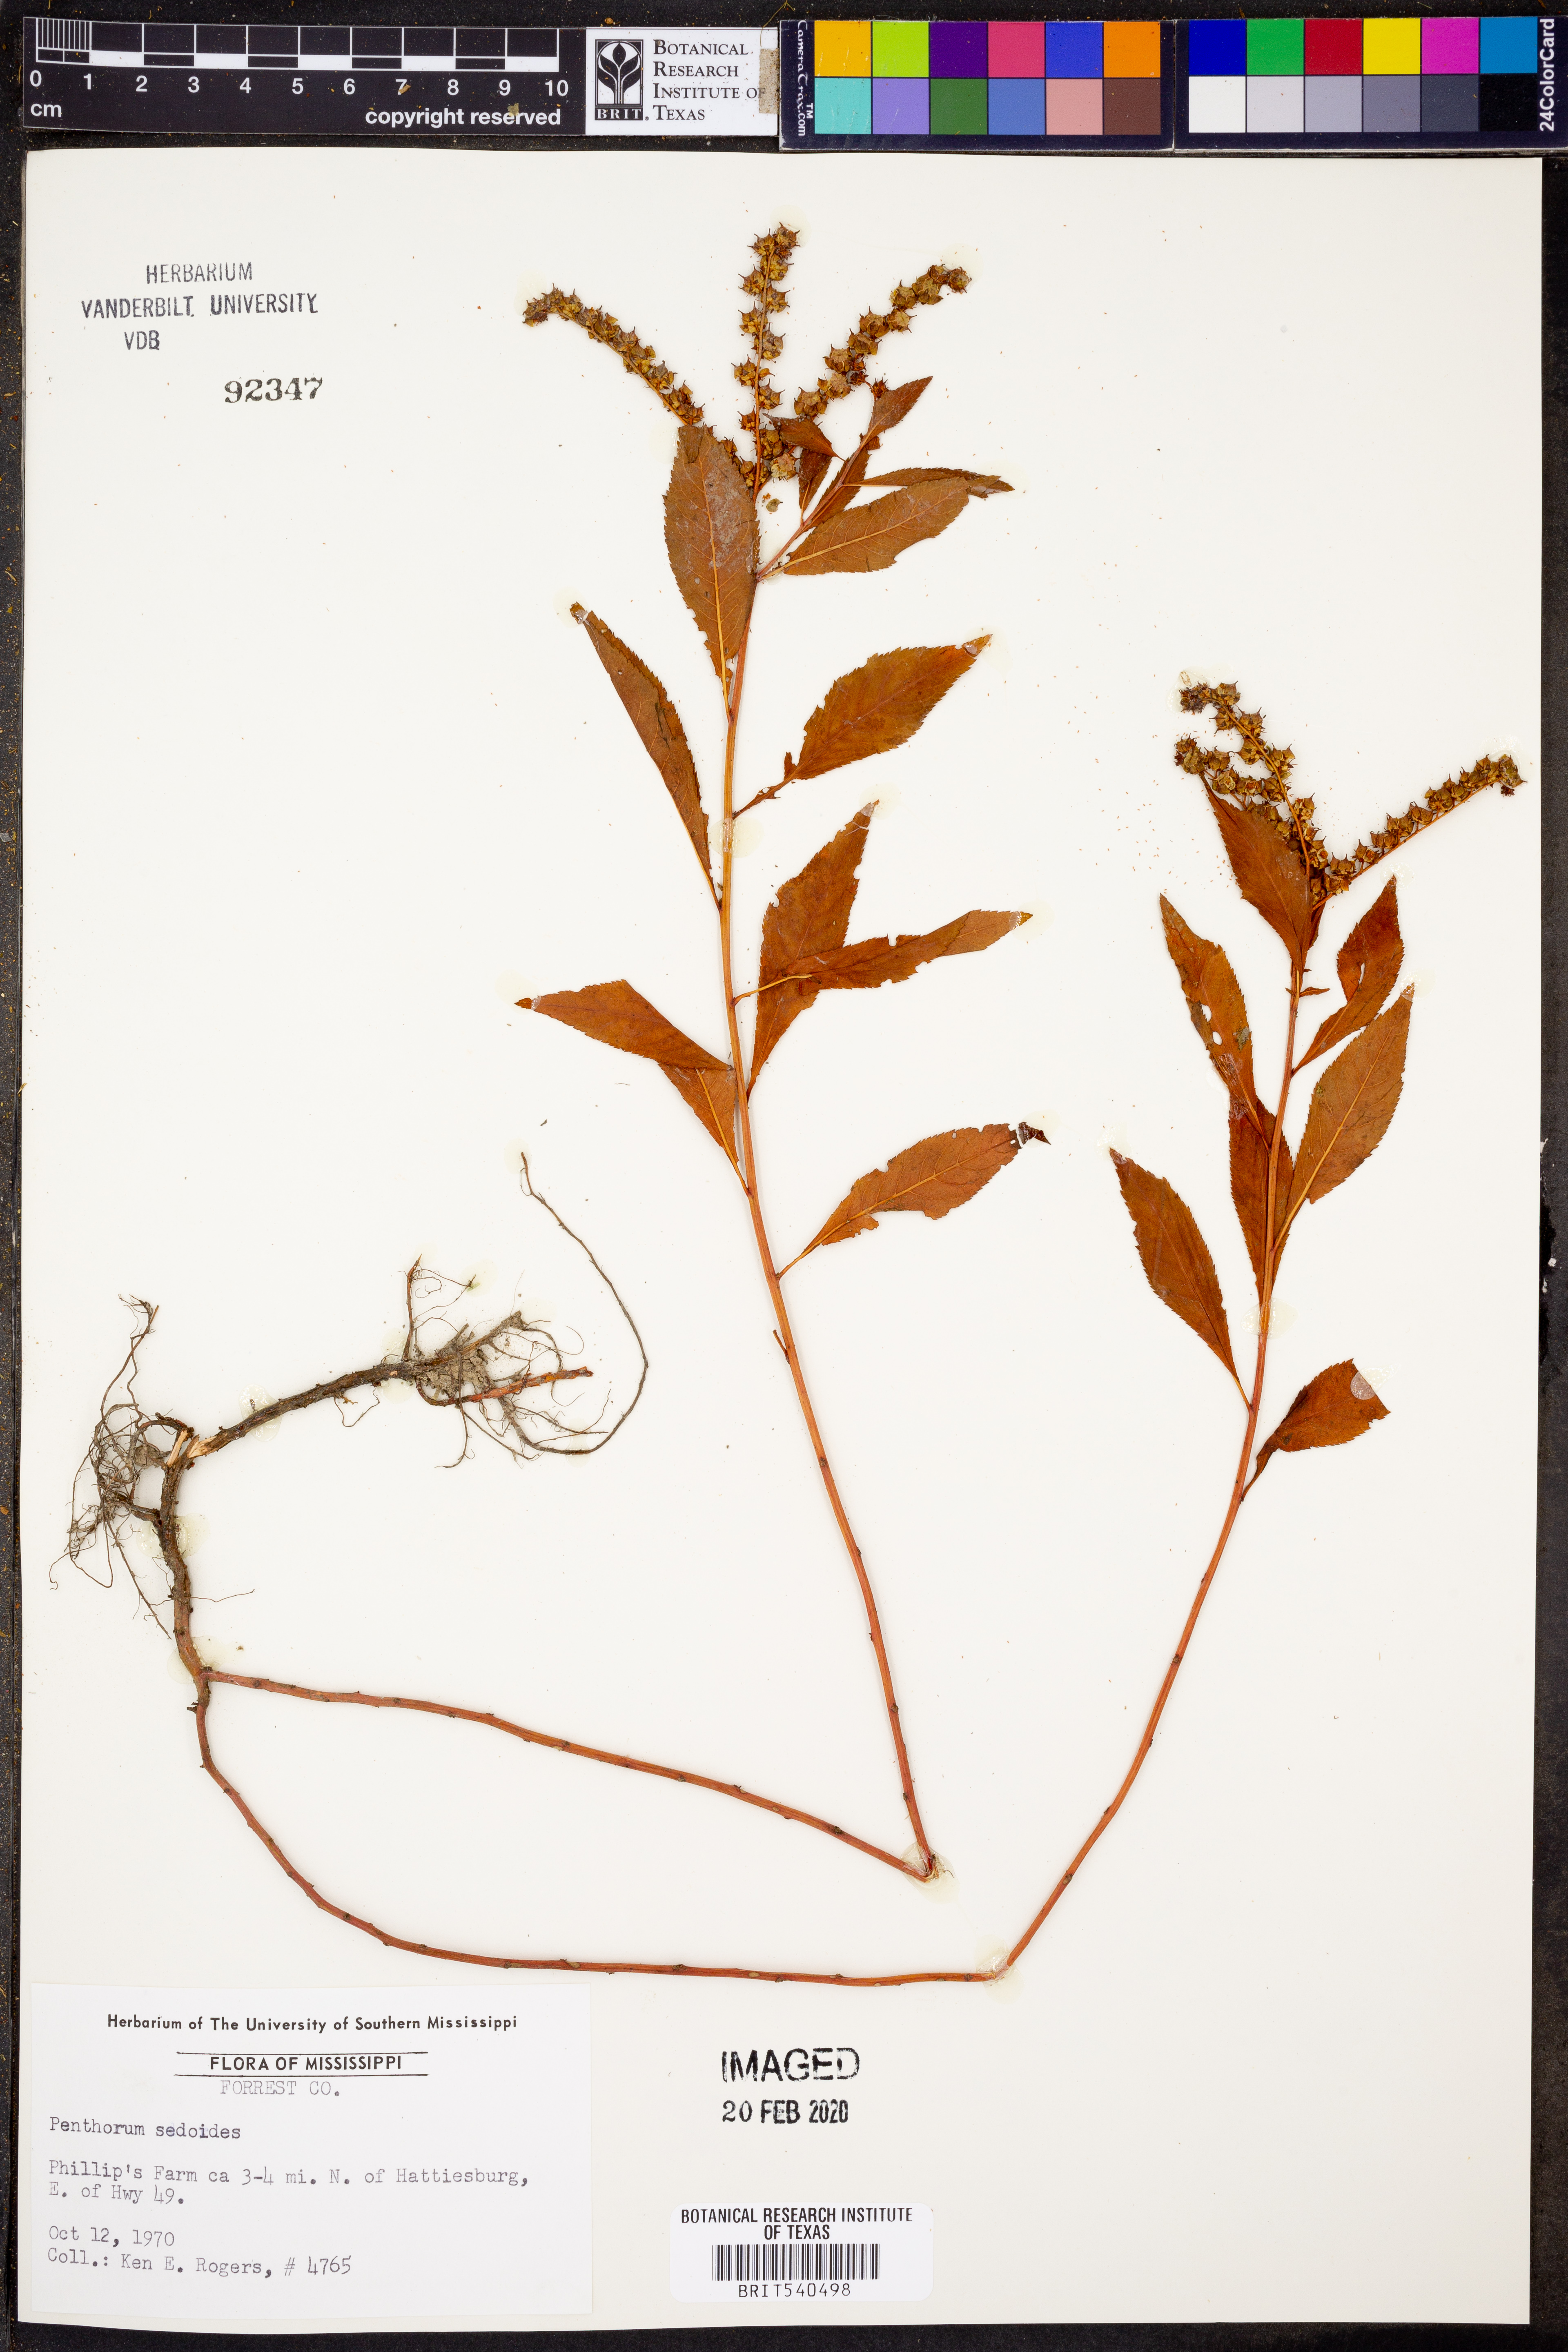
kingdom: Plantae
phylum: Tracheophyta
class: Magnoliopsida
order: Saxifragales
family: Penthoraceae
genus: Penthorum
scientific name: Penthorum sedoides
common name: Ditch stonecrop
